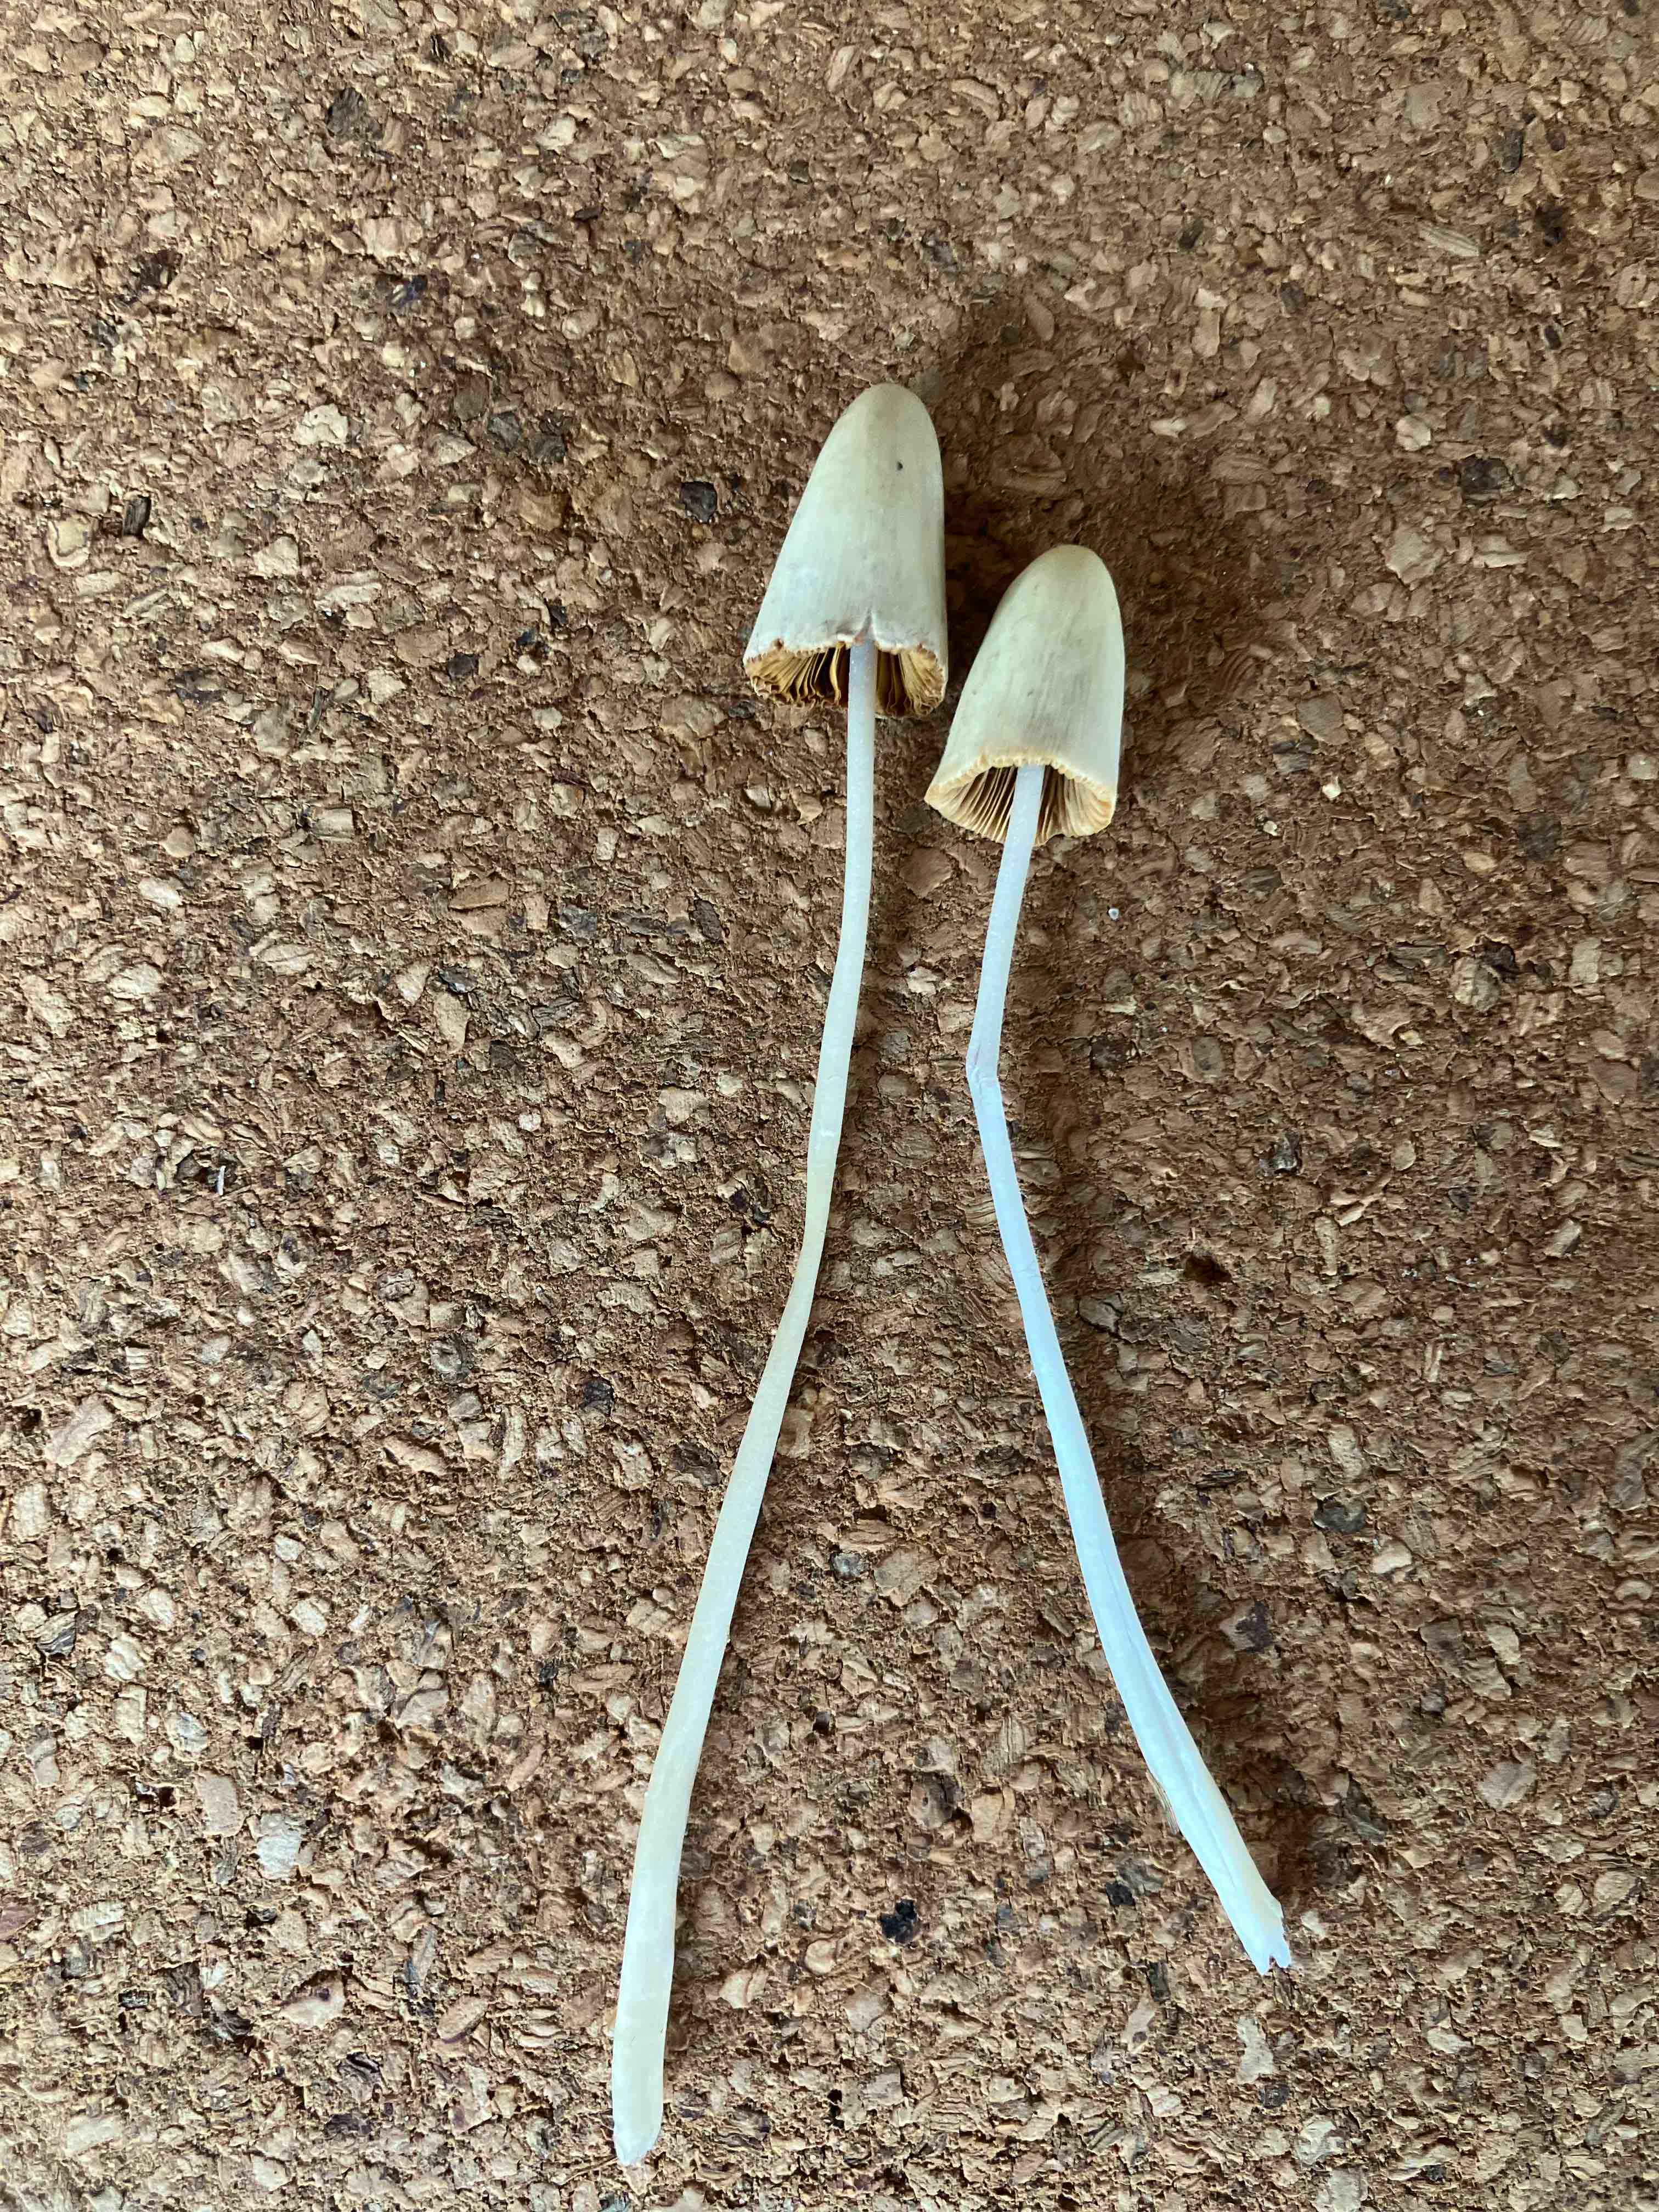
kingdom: Fungi
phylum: Basidiomycota
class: Agaricomycetes
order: Agaricales
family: Bolbitiaceae
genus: Conocybe
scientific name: Conocybe apala
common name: mælkehvid keglehat
